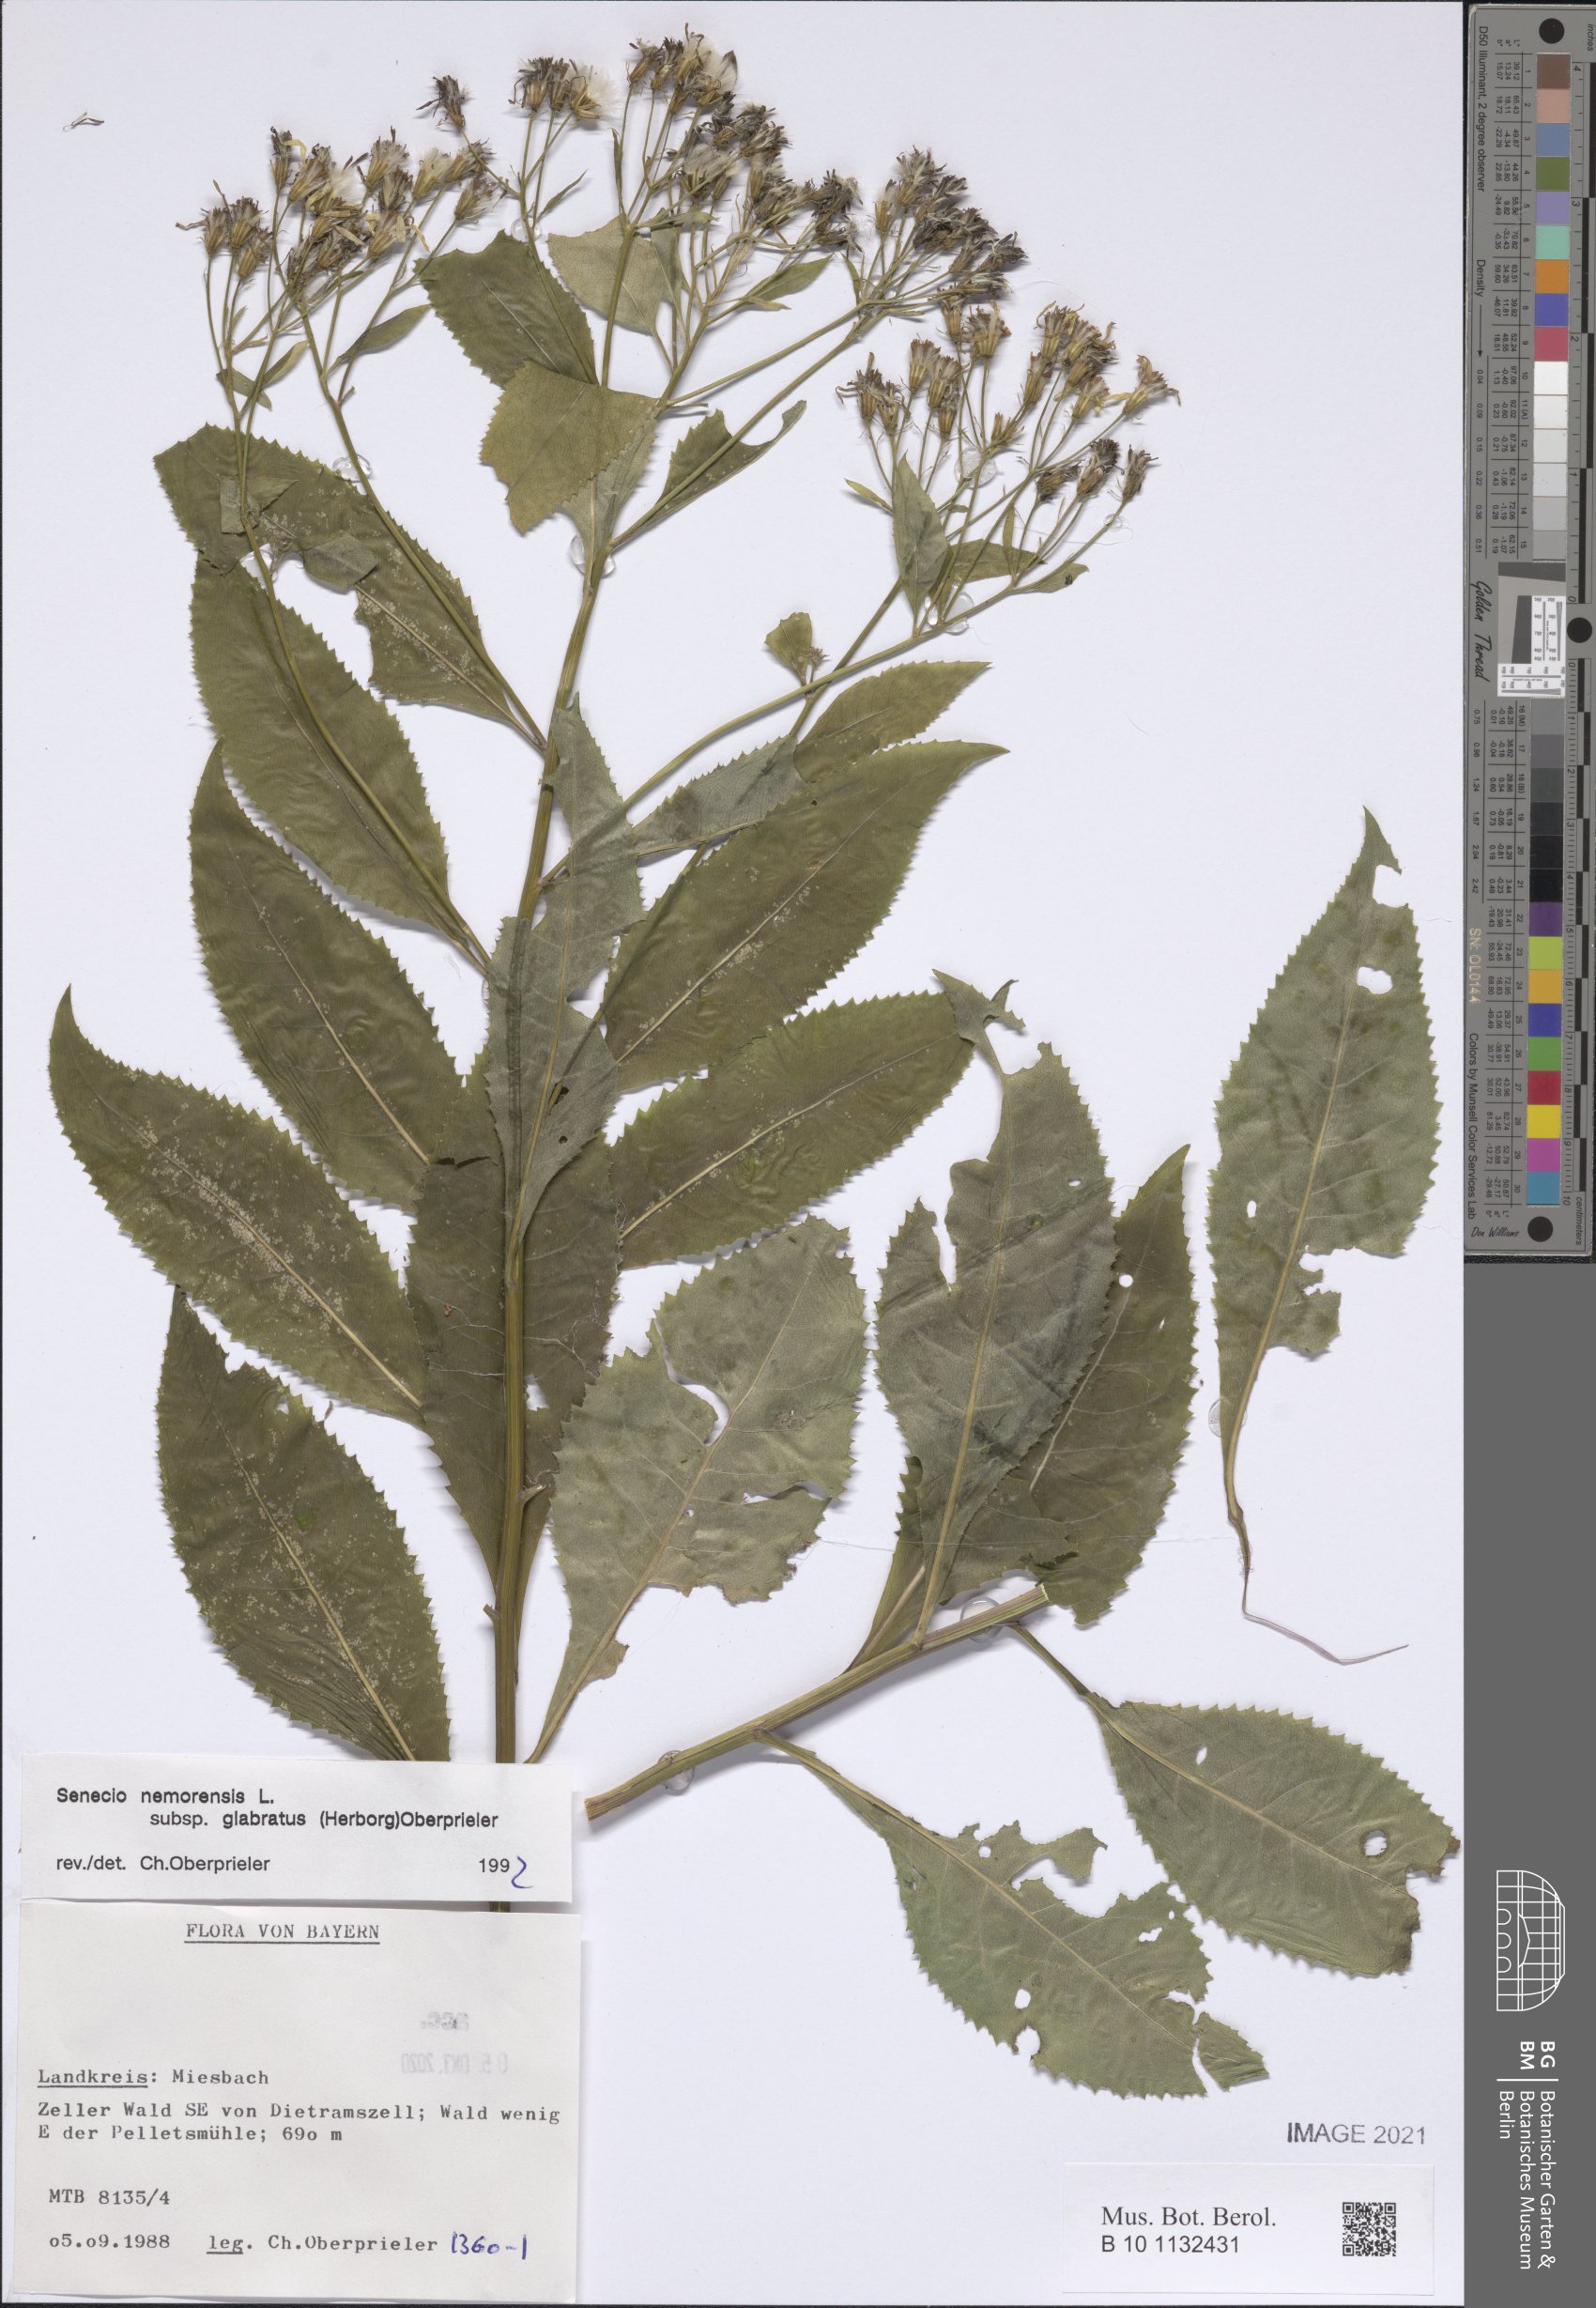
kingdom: Plantae
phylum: Tracheophyta
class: Magnoliopsida
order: Asterales
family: Asteraceae
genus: Senecio
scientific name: Senecio germanicus
